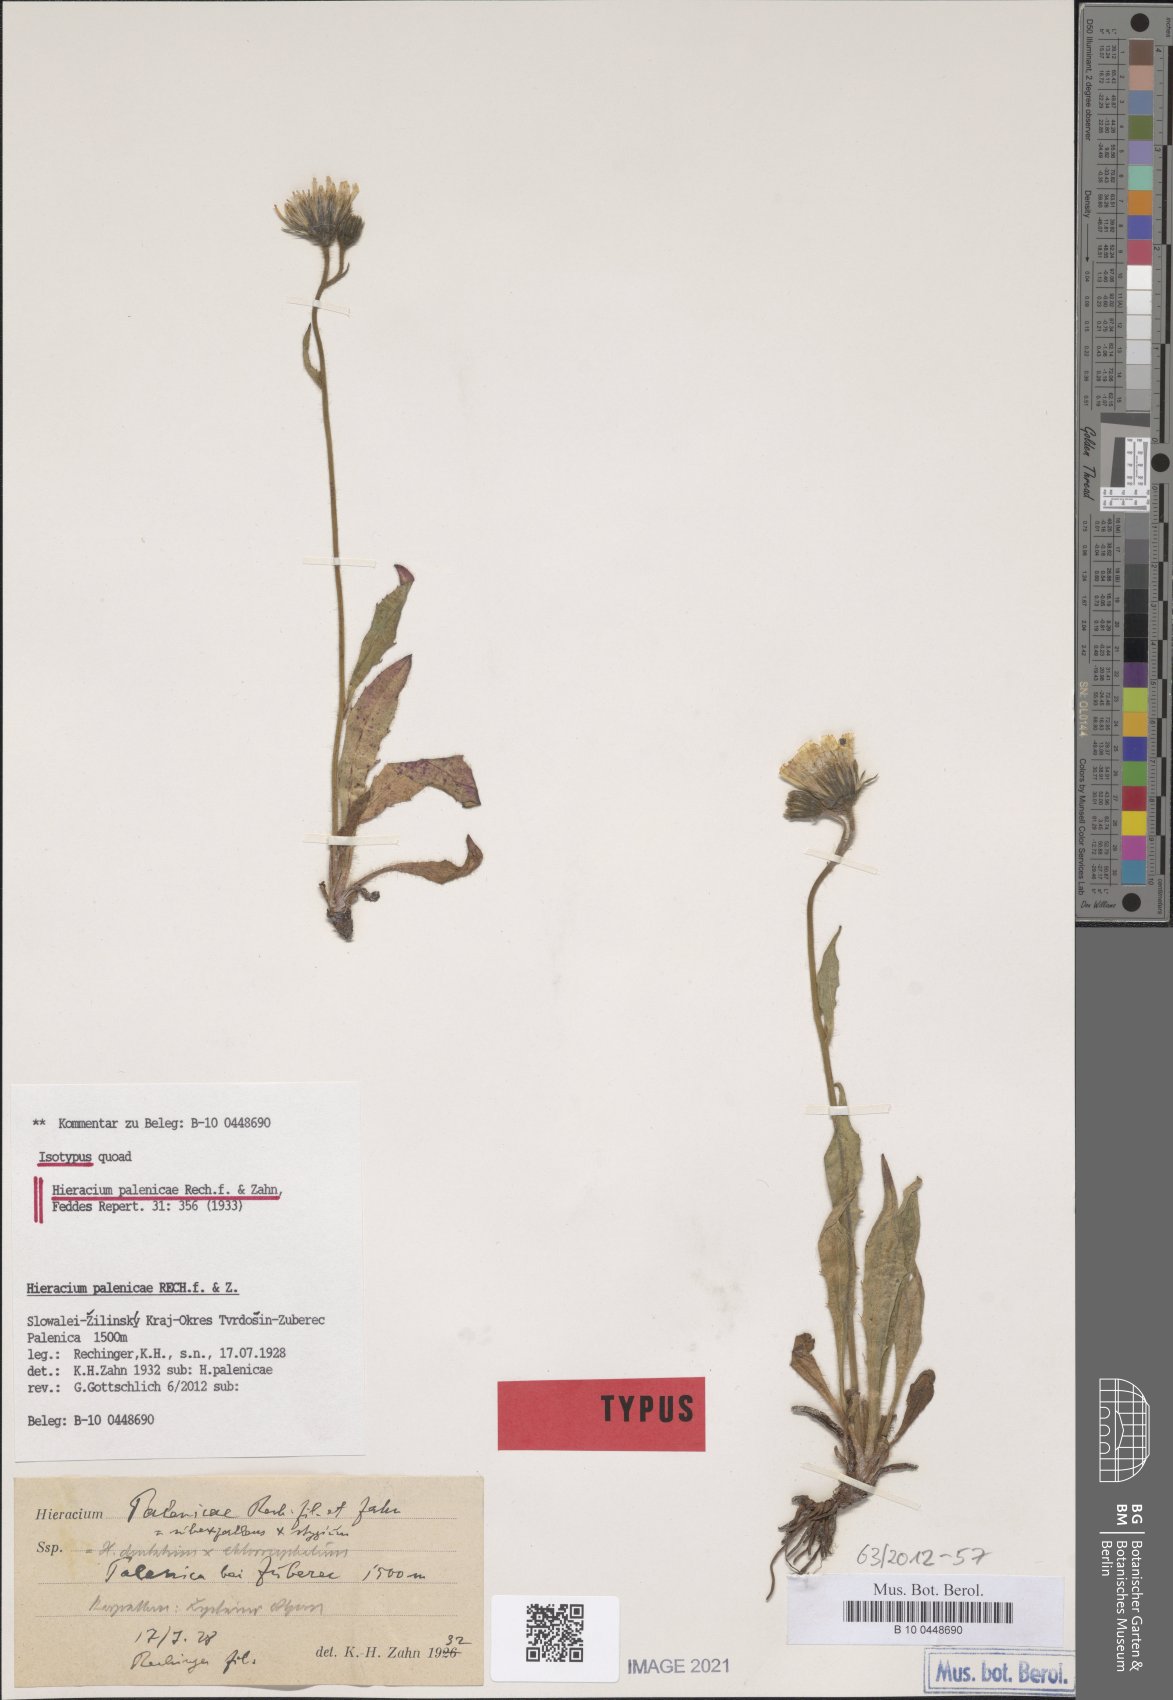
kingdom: Plantae
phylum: Tracheophyta
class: Magnoliopsida
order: Asterales
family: Asteraceae
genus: Hieracium
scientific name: Hieracium palenicae
